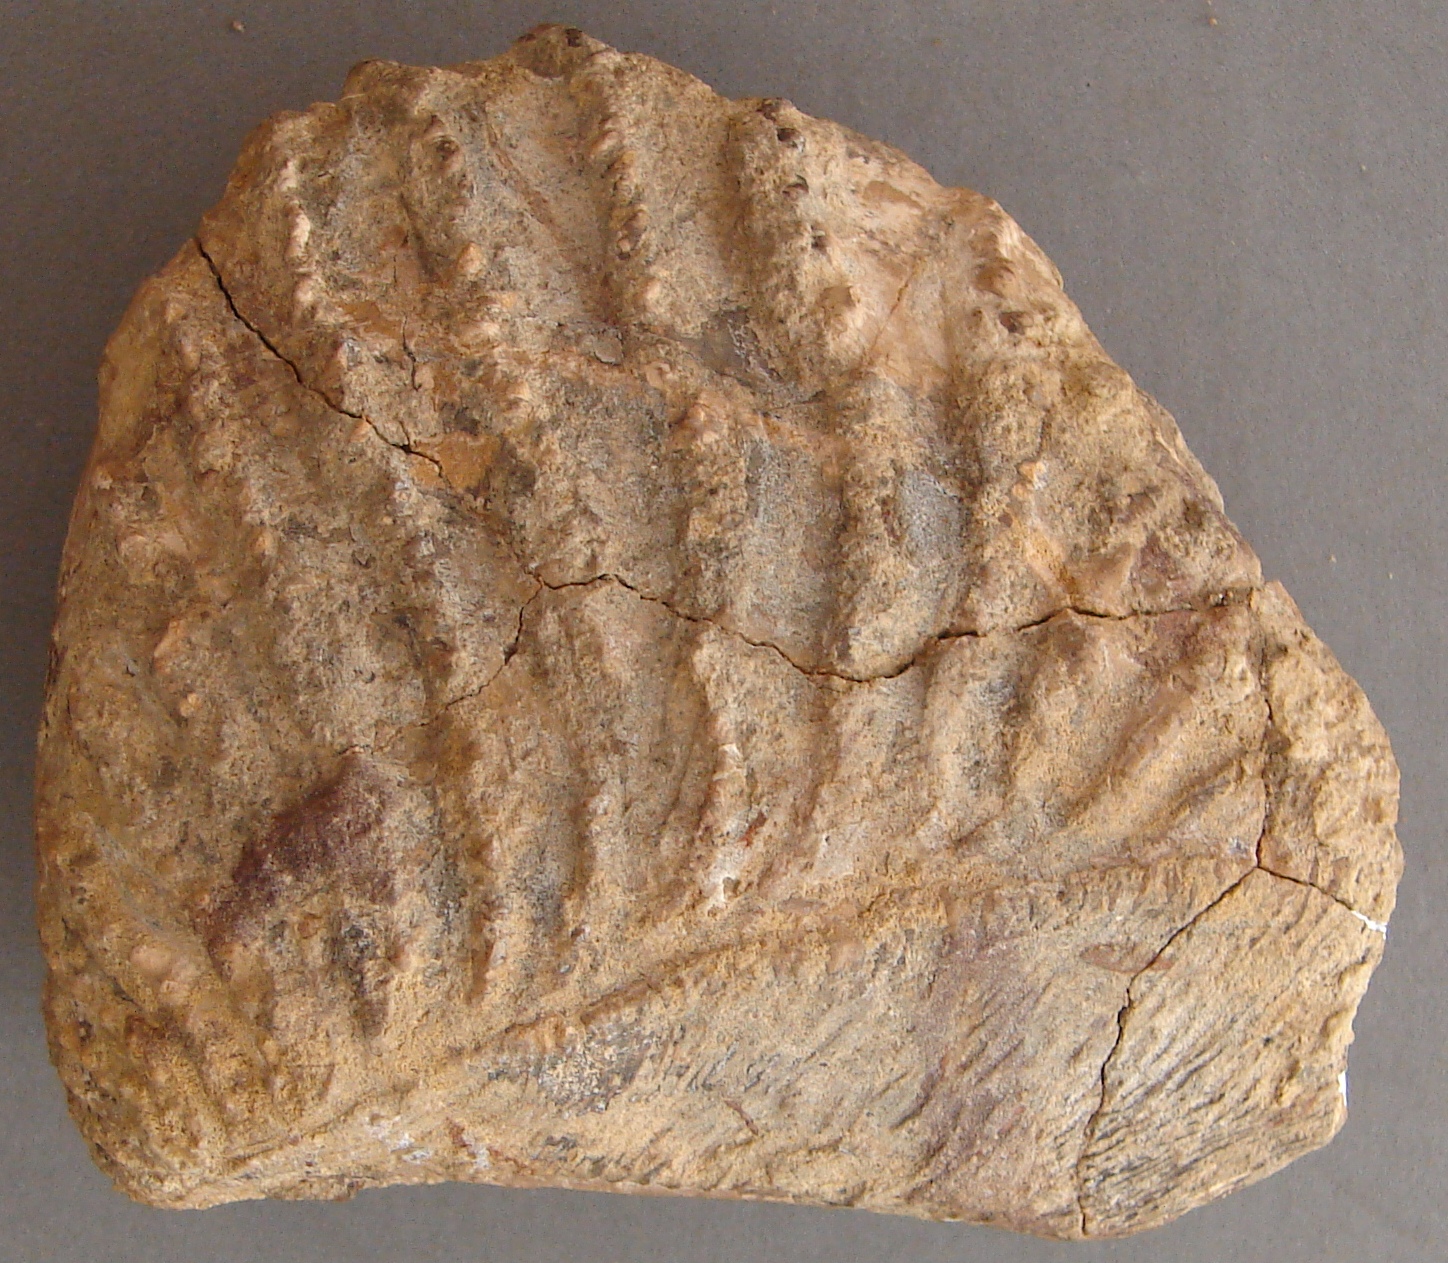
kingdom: Animalia
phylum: Mollusca
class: Bivalvia
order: Trigoniida
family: Myophorellidae
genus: Myophorella
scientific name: Myophorella nodulosa
